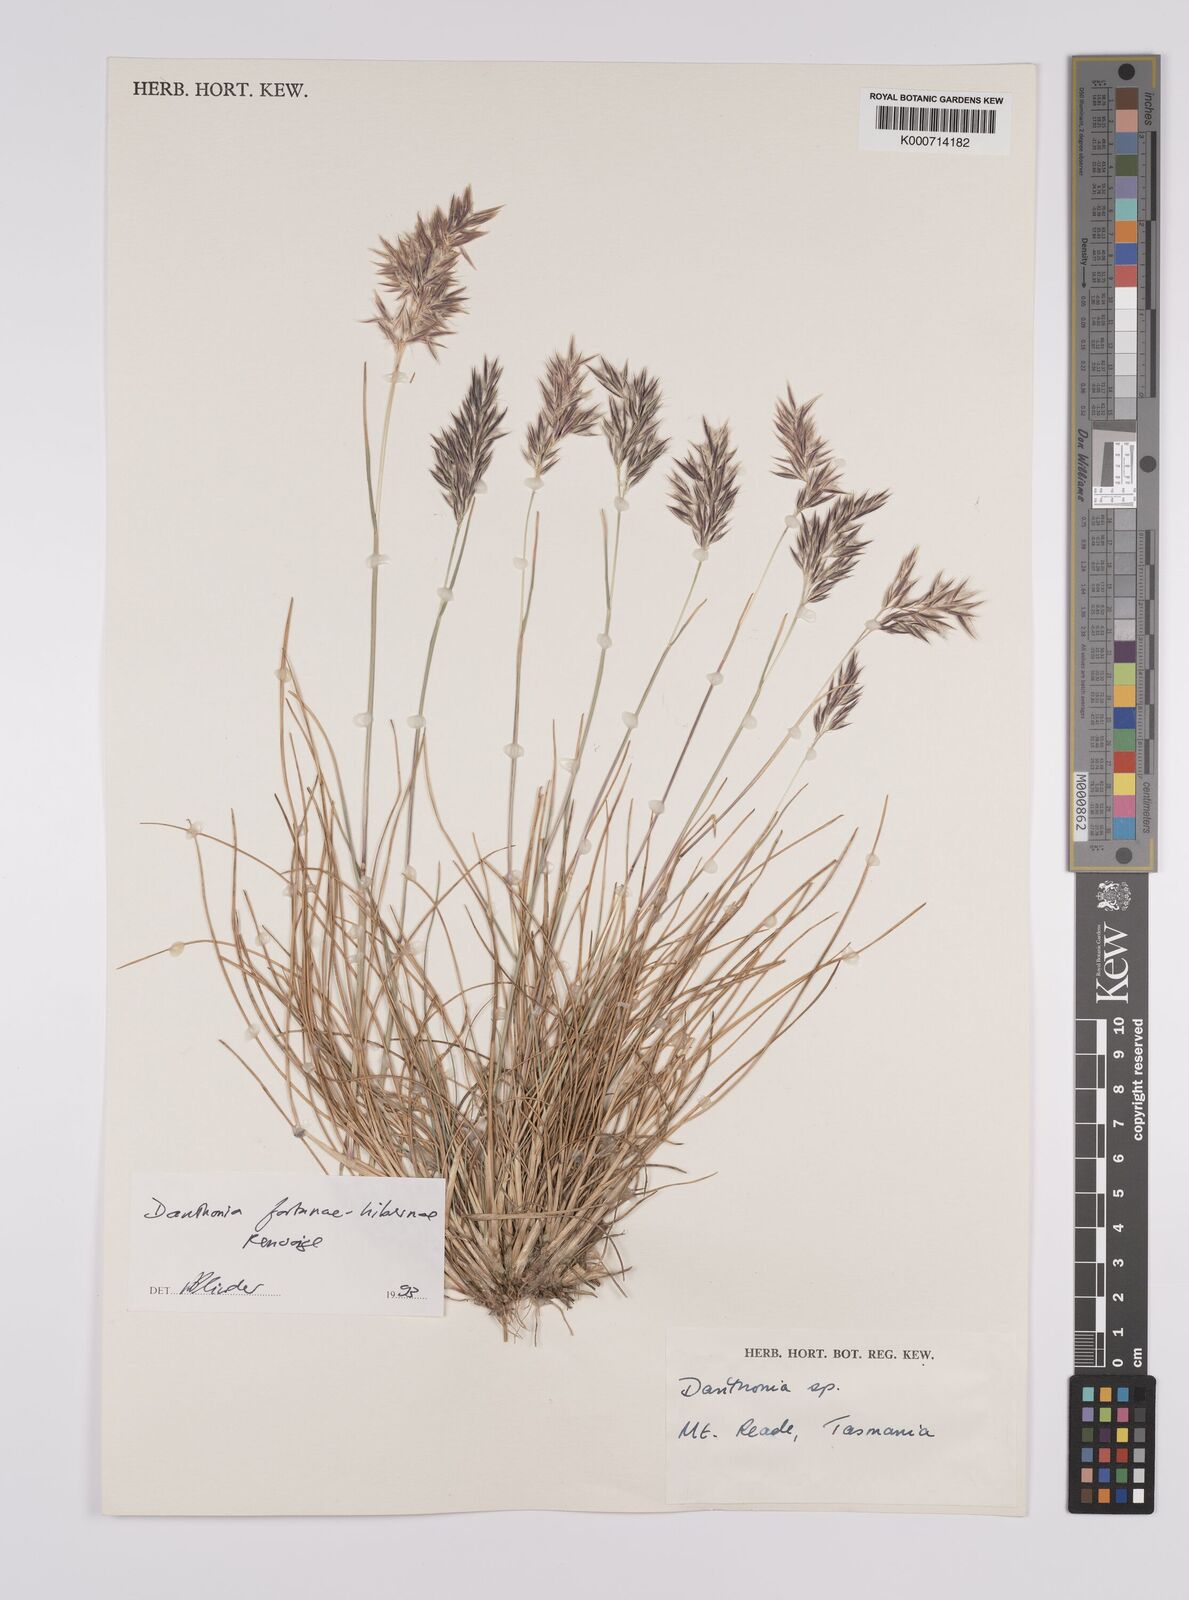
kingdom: Plantae
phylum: Tracheophyta
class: Liliopsida
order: Poales
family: Poaceae
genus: Rytidosperma
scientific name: Rytidosperma
